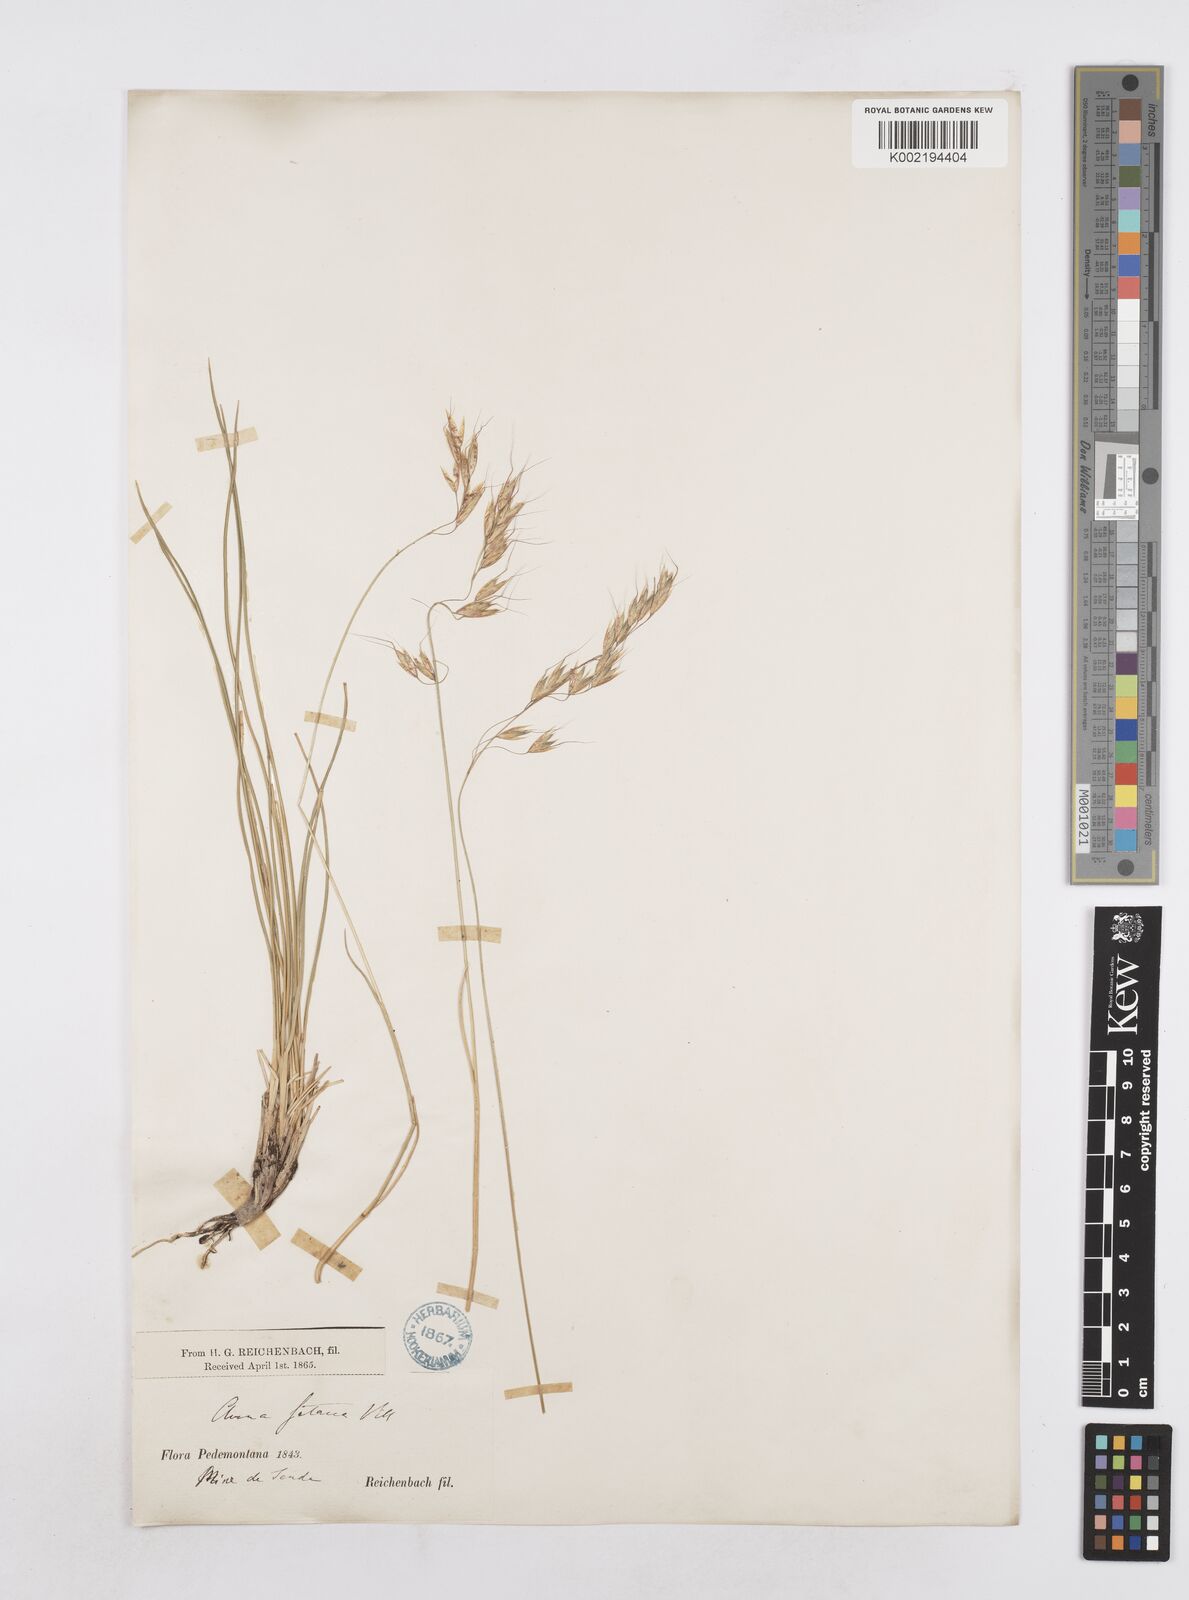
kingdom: Plantae
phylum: Tracheophyta
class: Liliopsida
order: Poales
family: Poaceae
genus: Helictotrichon
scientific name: Helictotrichon setaceum
